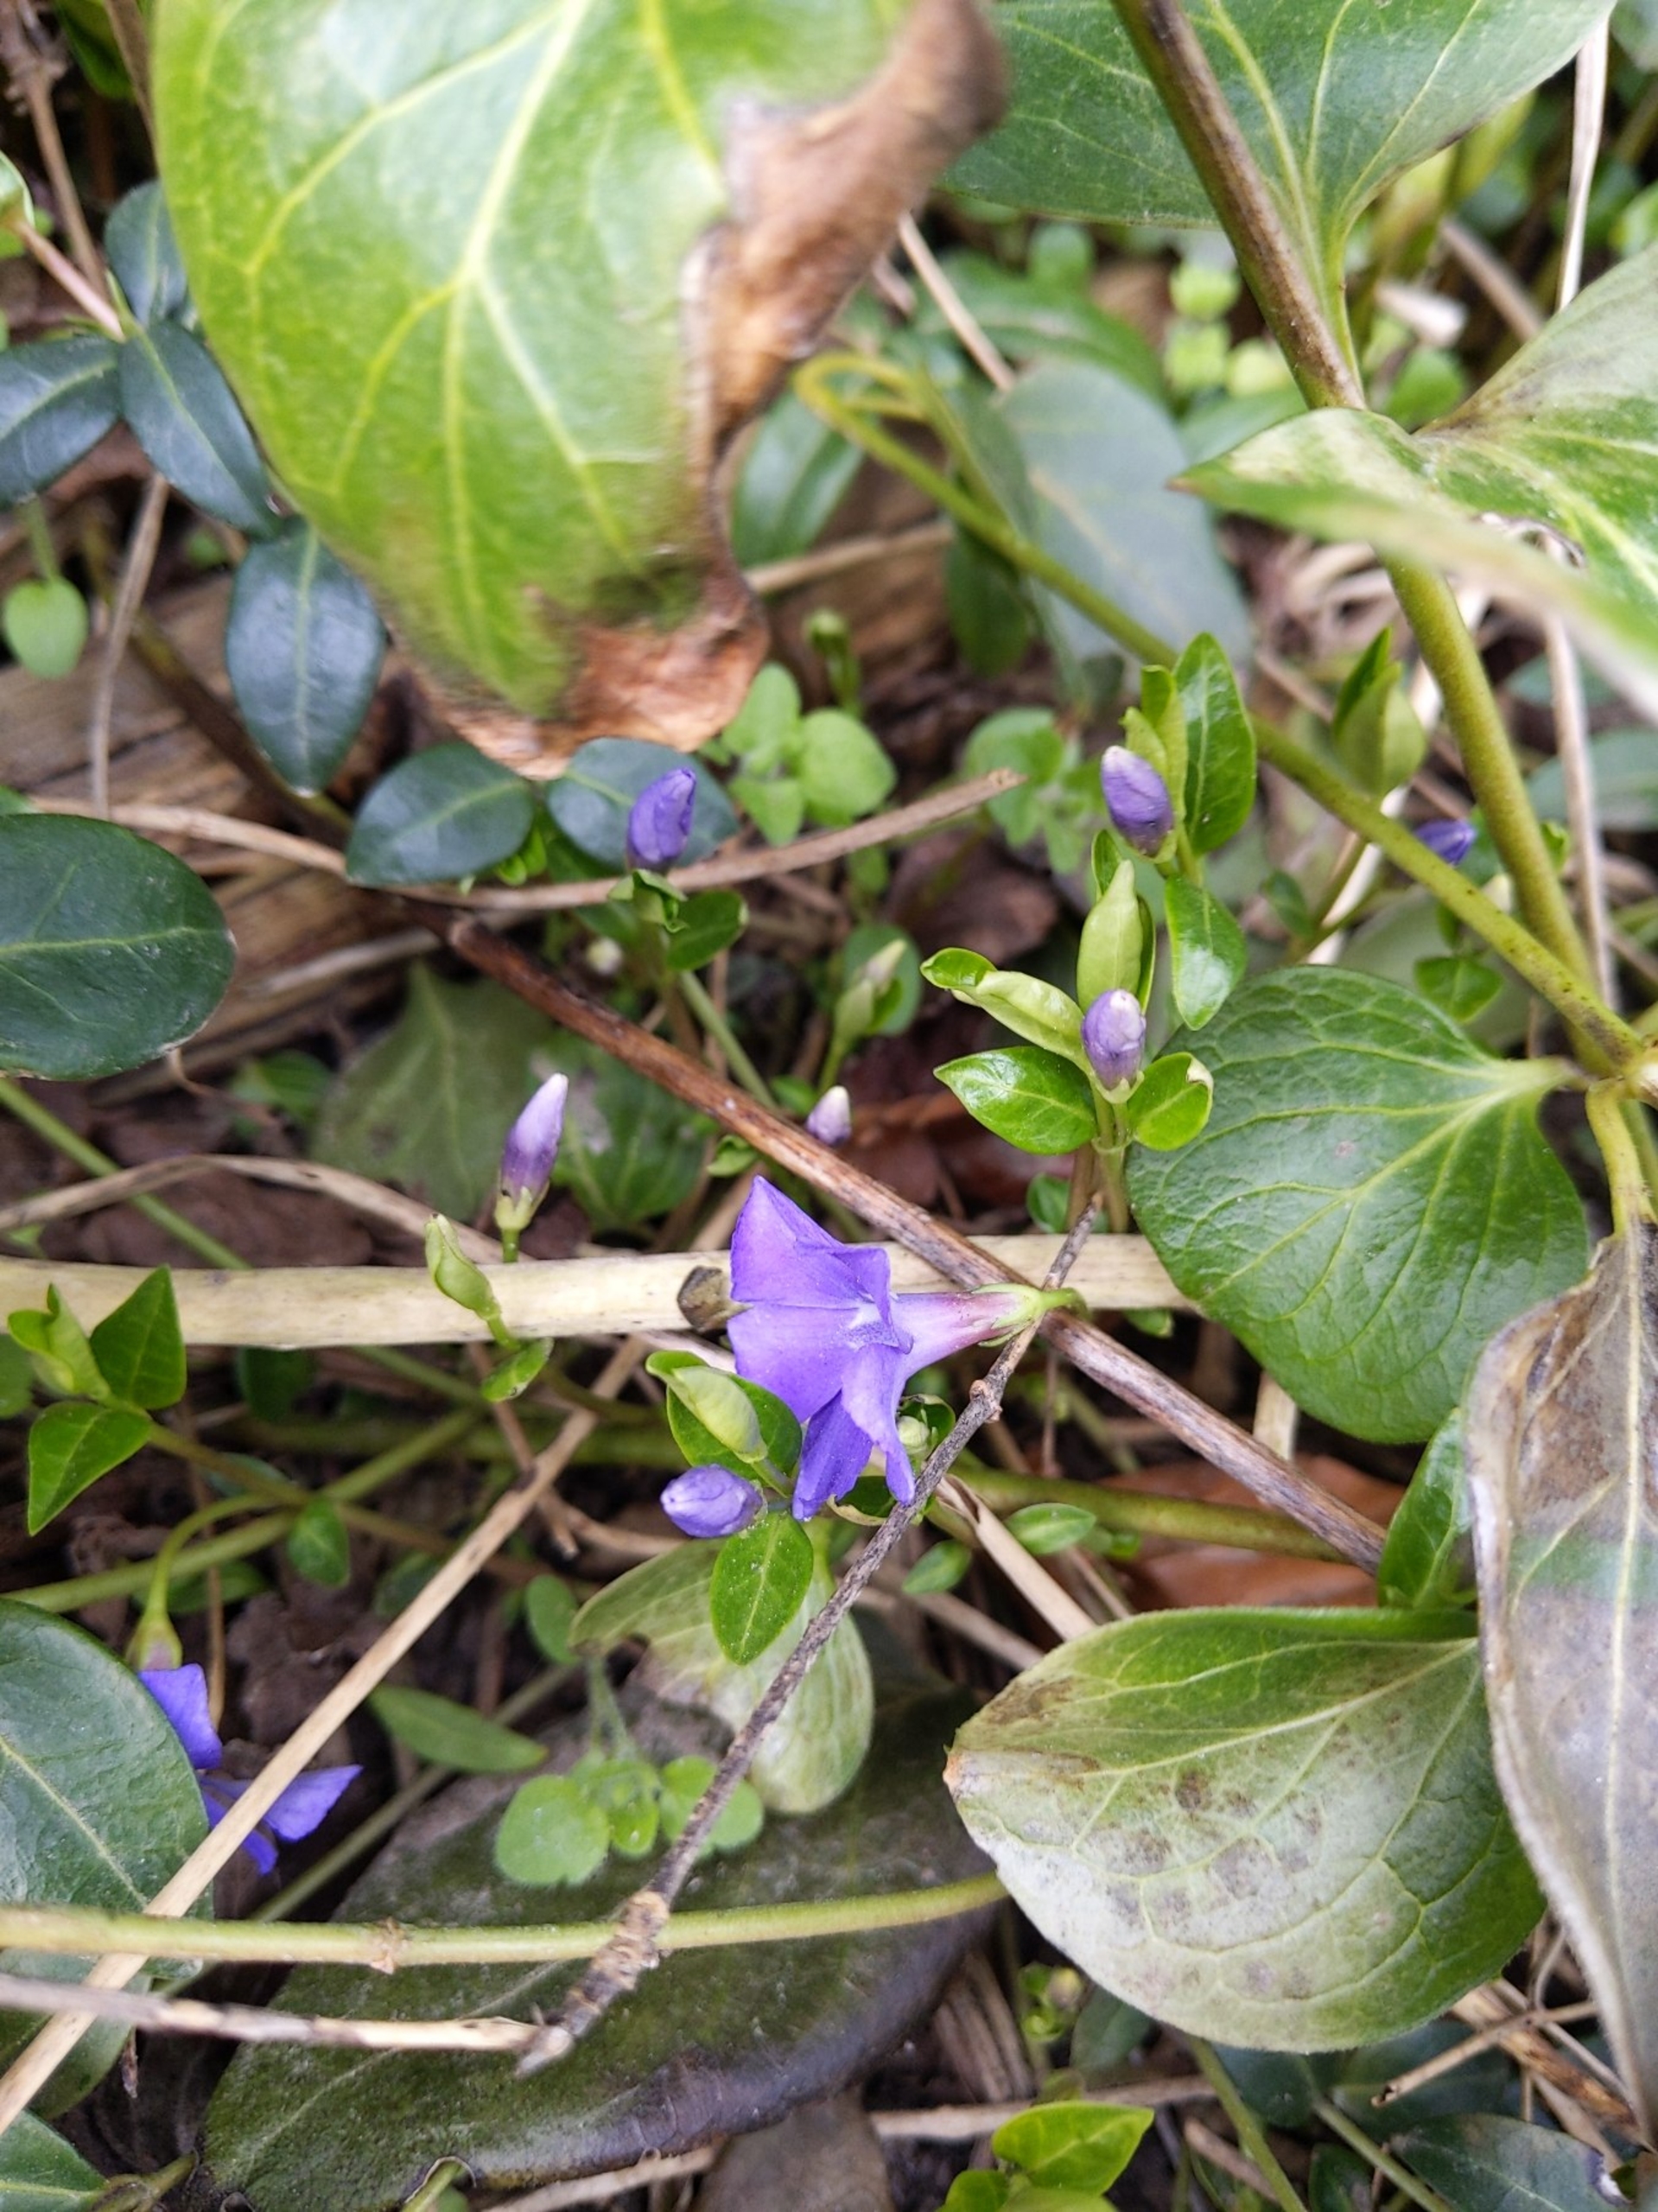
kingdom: Plantae
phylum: Tracheophyta
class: Magnoliopsida
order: Gentianales
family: Apocynaceae
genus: Vinca
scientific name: Vinca minor
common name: Liden singrøn
